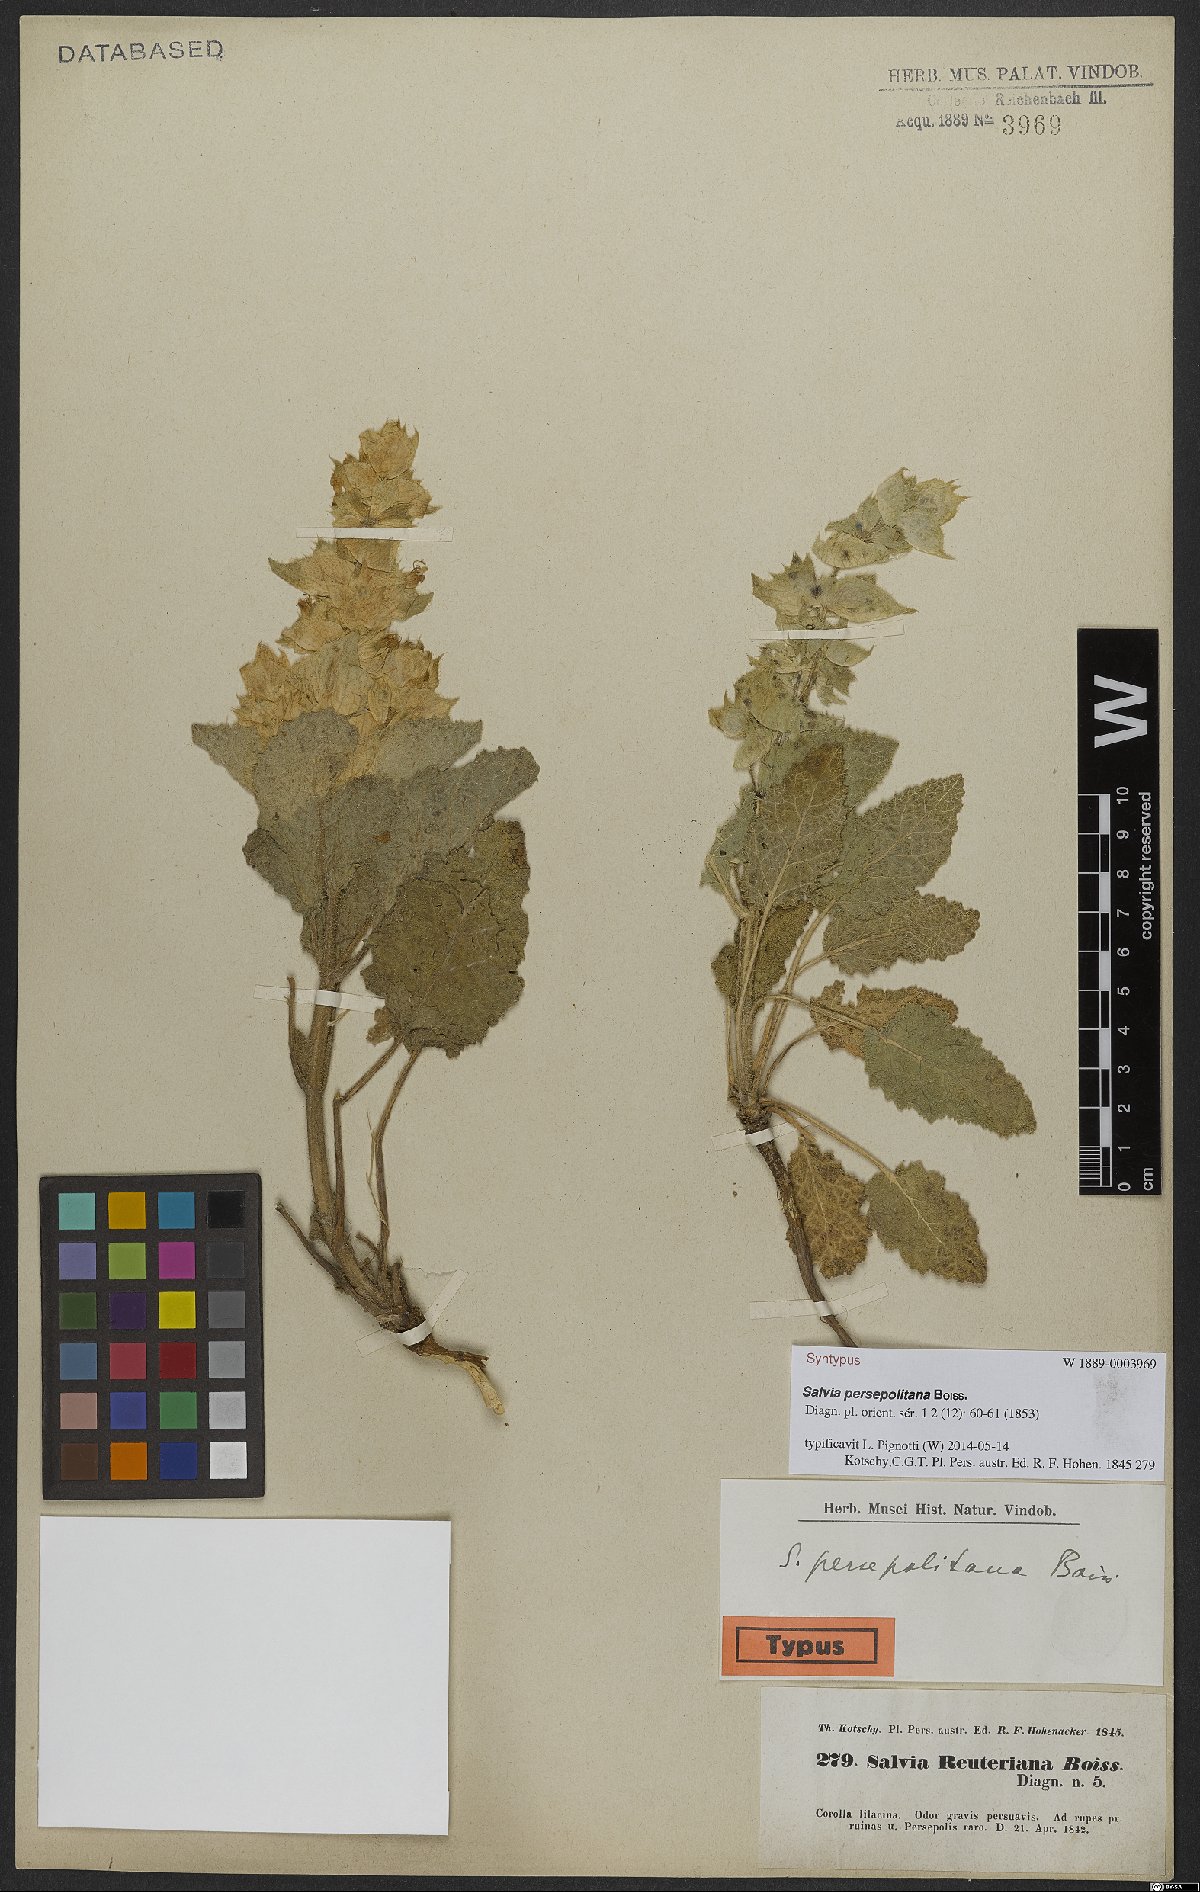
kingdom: Plantae
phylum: Tracheophyta
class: Magnoliopsida
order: Lamiales
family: Lamiaceae
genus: Salvia
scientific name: Salvia persepolitana
